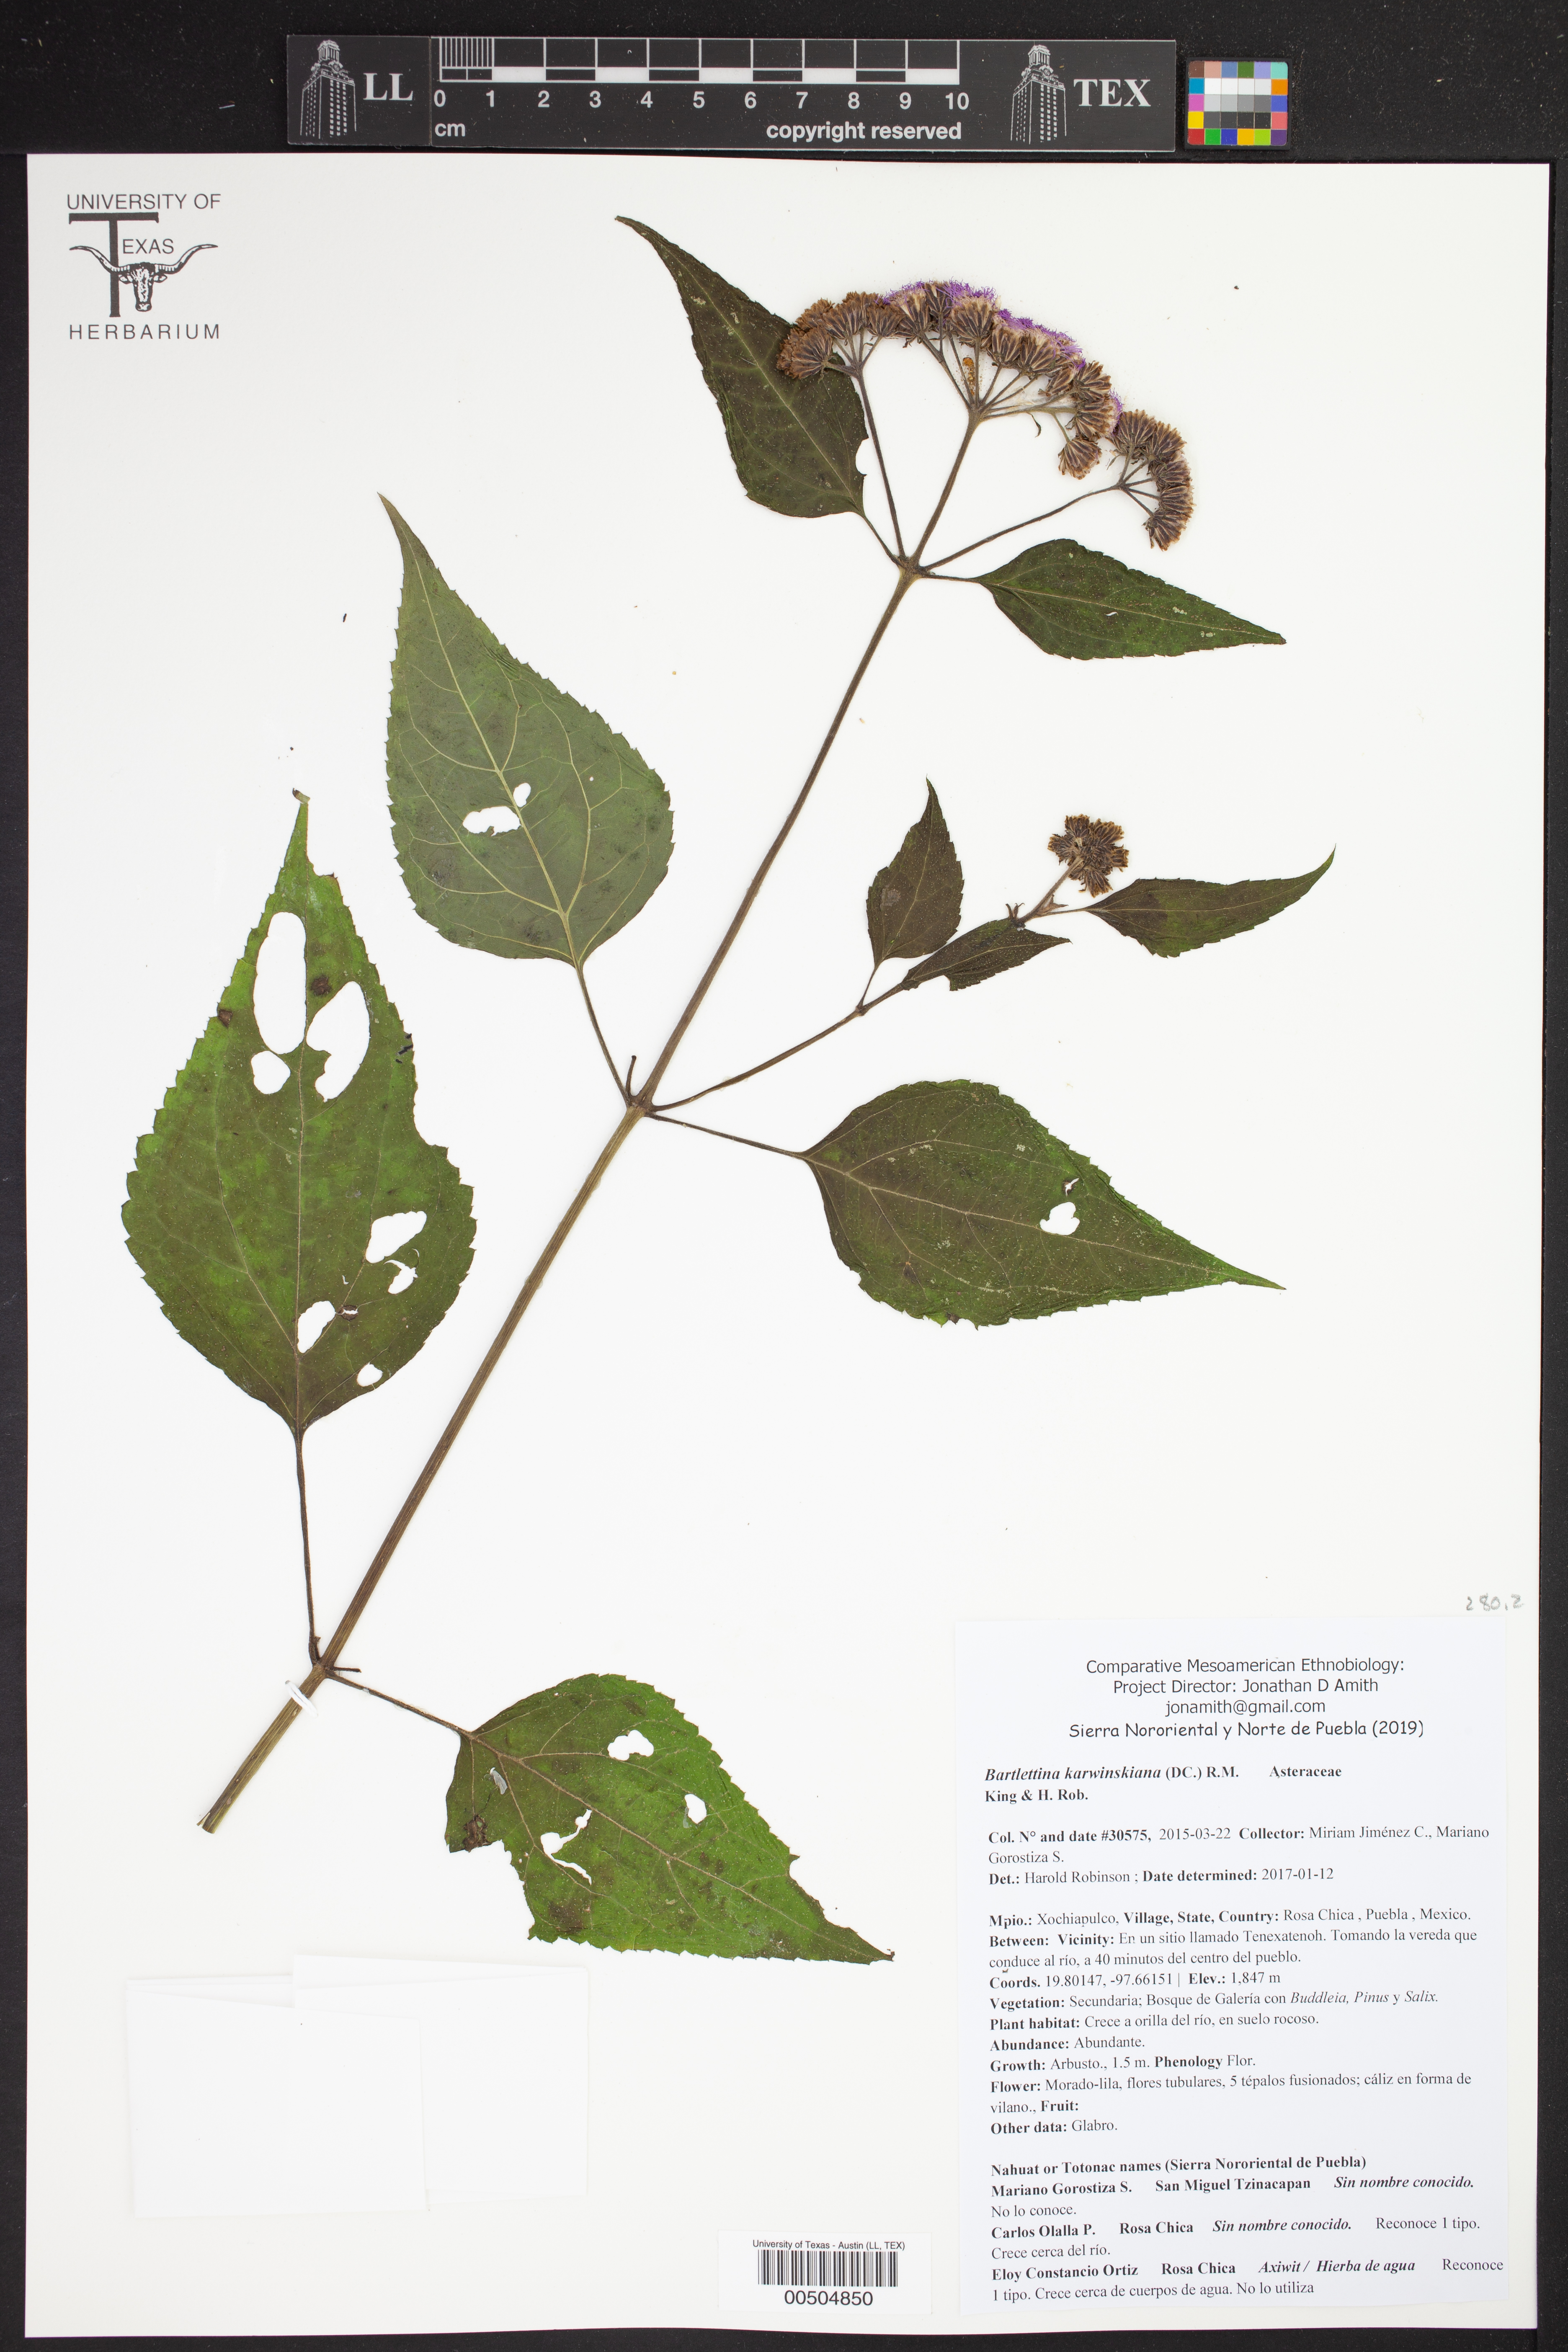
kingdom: Plantae
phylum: Tracheophyta
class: Magnoliopsida
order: Asterales
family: Asteraceae
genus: Bartlettina
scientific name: Bartlettina karwinskiana
